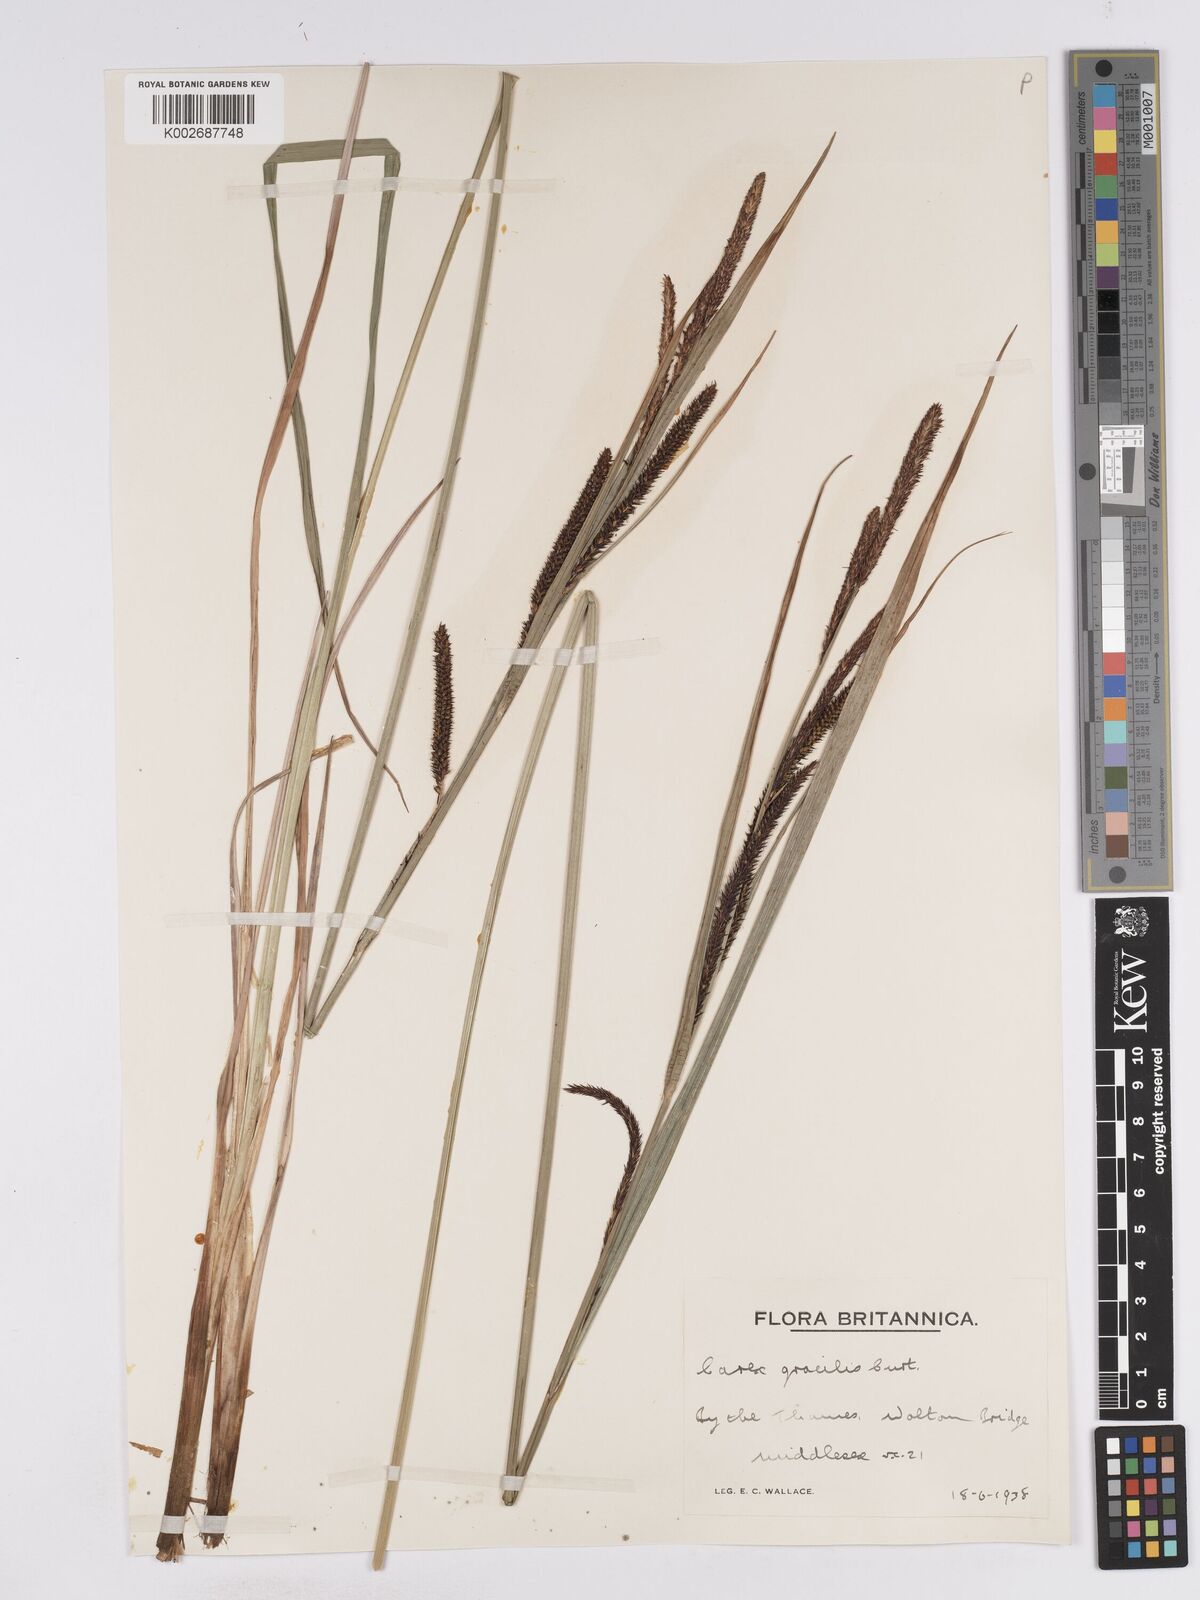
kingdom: Plantae
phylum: Tracheophyta
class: Liliopsida
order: Poales
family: Cyperaceae
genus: Carex
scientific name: Carex acuta
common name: Slender tufted-sedge
